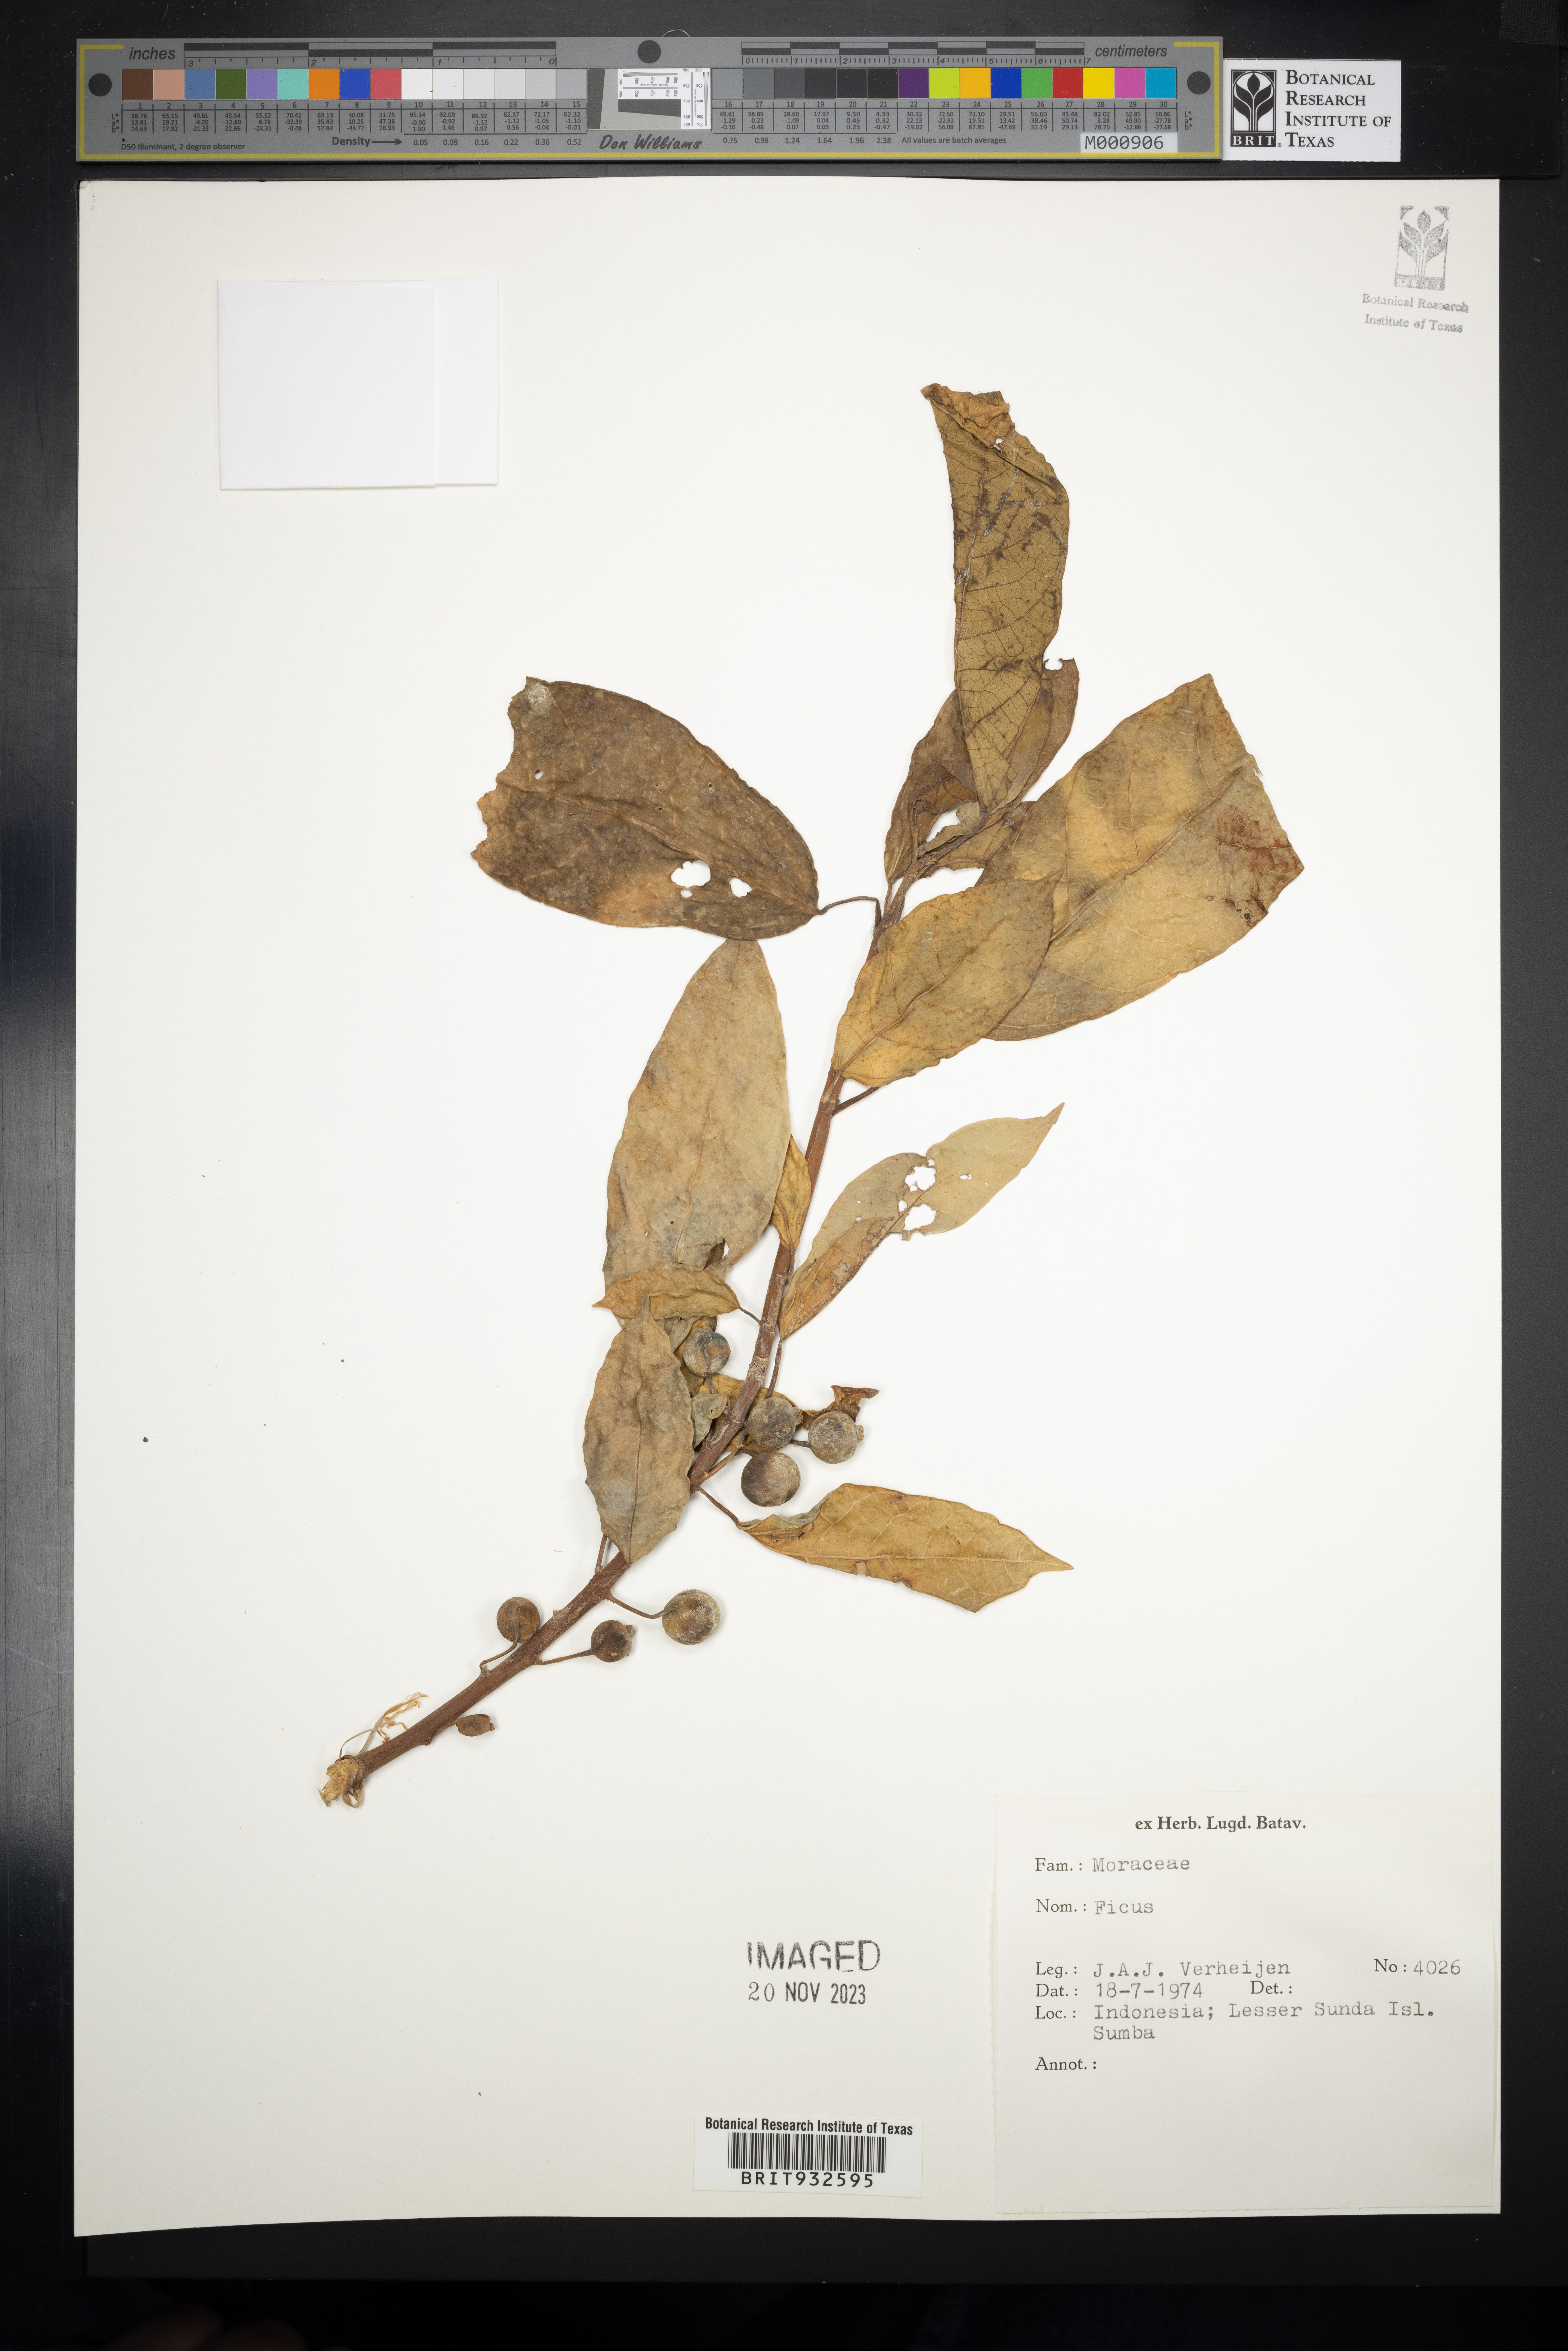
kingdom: Plantae
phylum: Tracheophyta
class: Magnoliopsida
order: Rosales
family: Moraceae
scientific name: Moraceae
